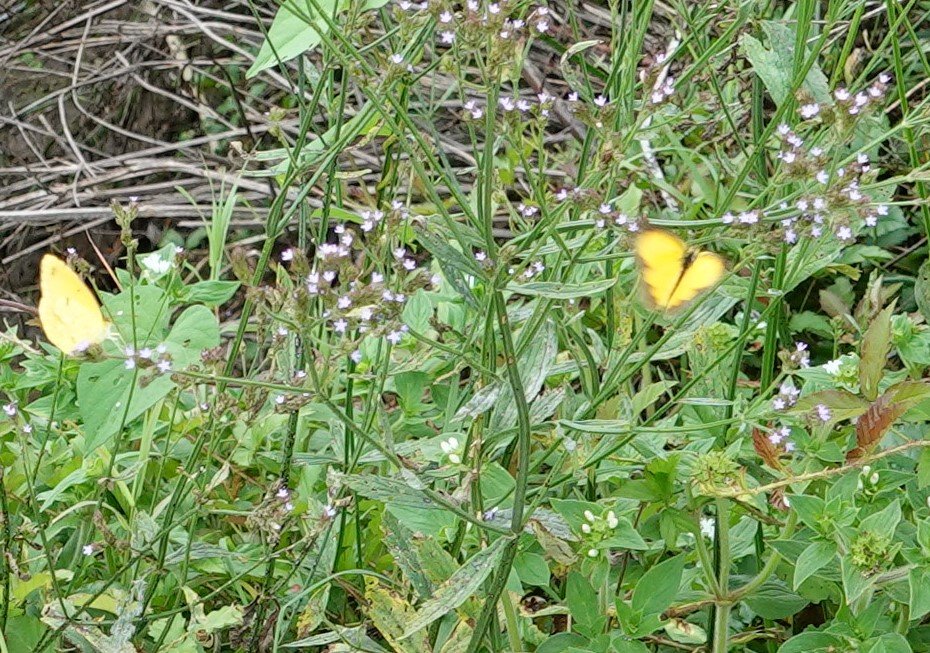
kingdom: Animalia
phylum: Arthropoda
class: Insecta
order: Lepidoptera
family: Pieridae
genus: Abaeis
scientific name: Abaeis nicippe
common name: Sleepy Orange
